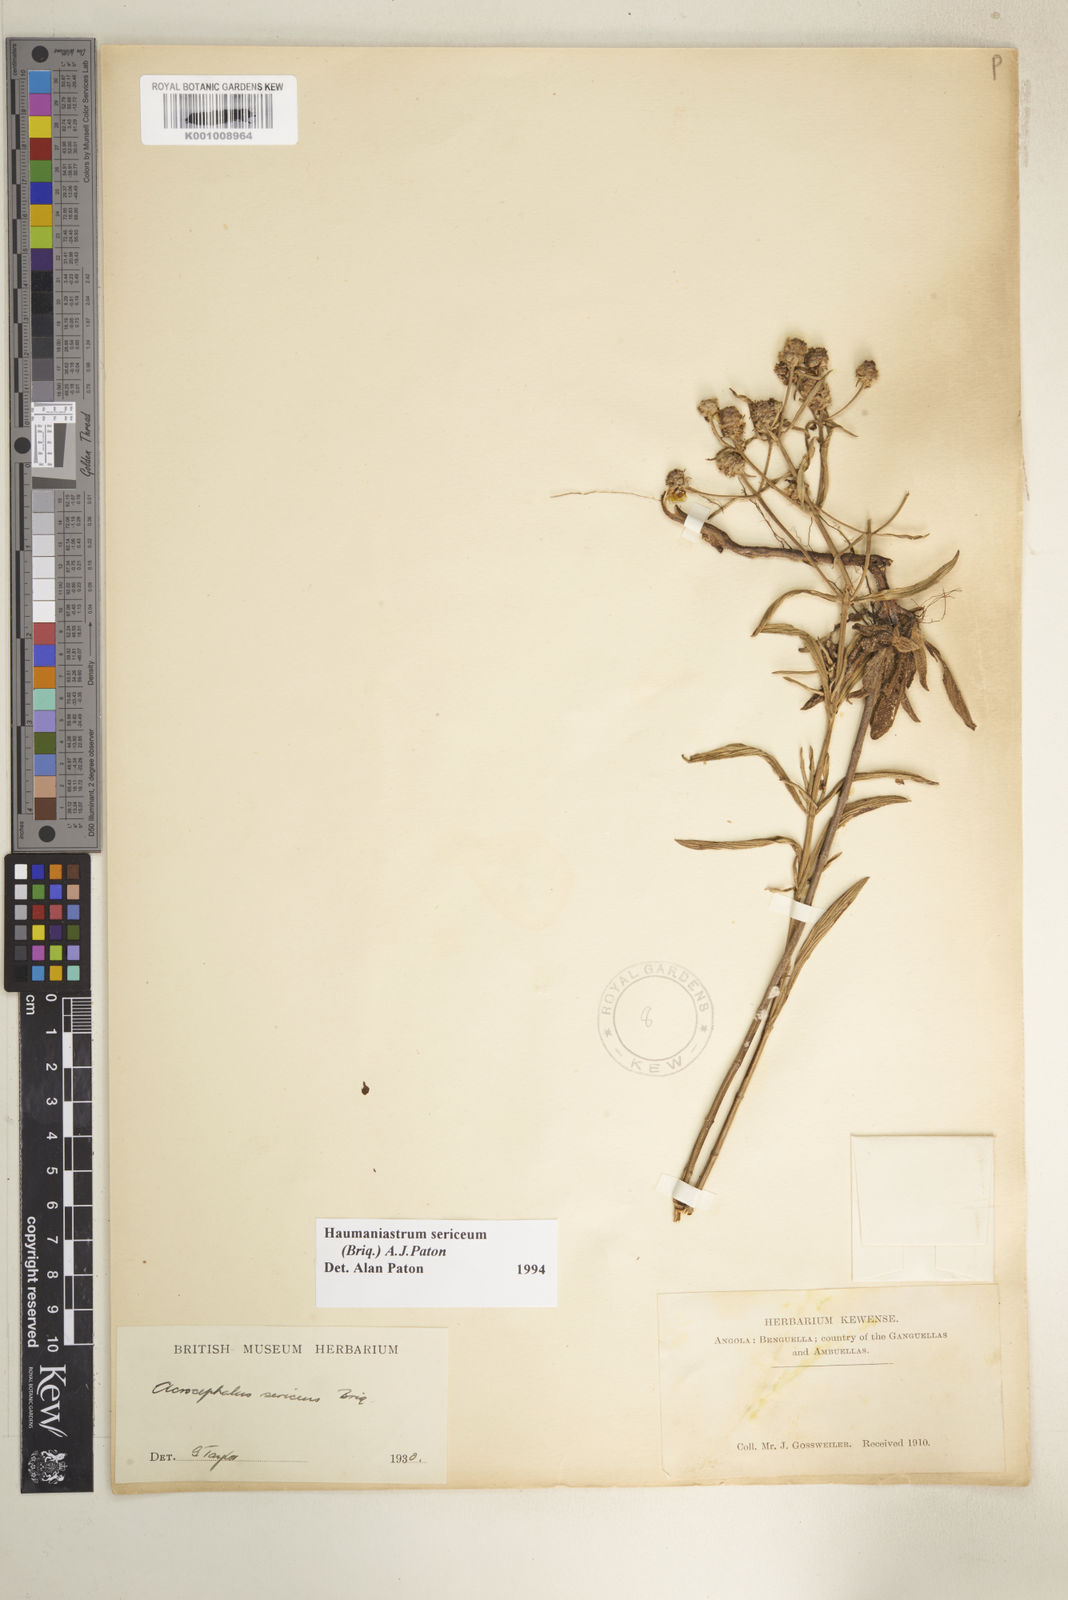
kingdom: Plantae
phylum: Tracheophyta
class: Magnoliopsida
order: Lamiales
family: Lamiaceae
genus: Haumaniastrum
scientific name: Haumaniastrum sericeum
